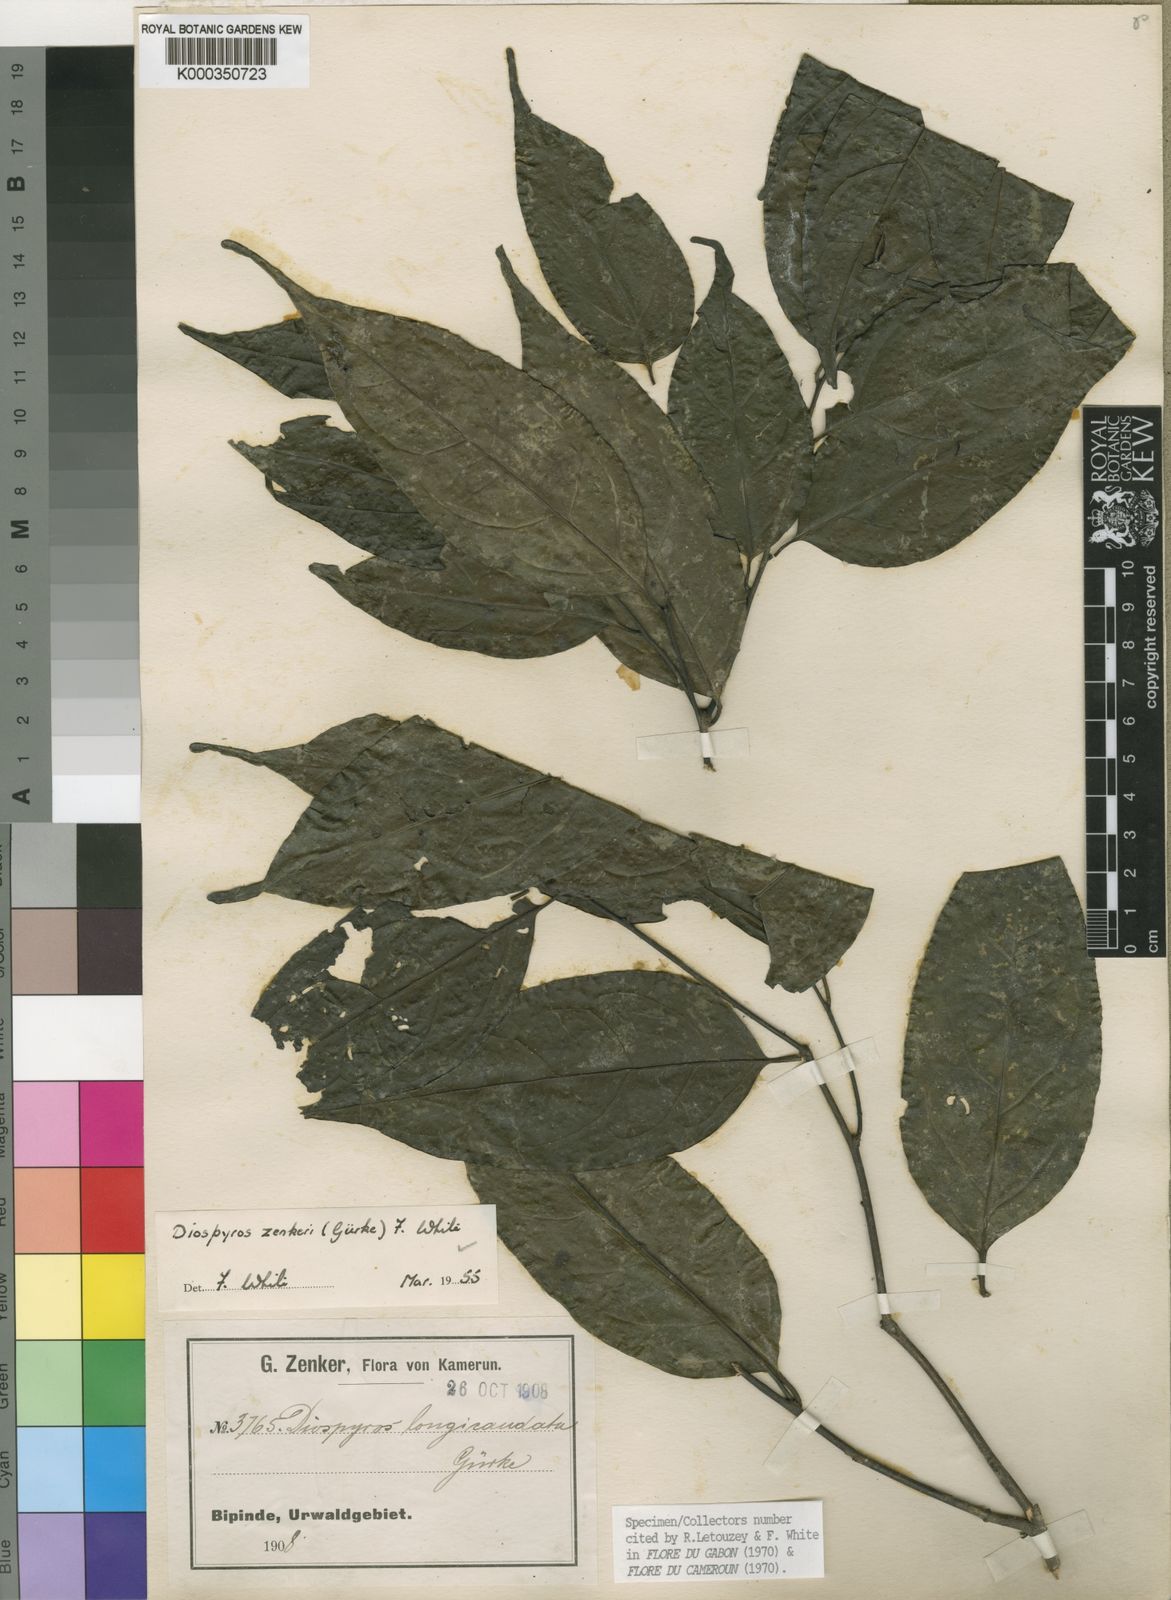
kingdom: Plantae
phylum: Tracheophyta
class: Magnoliopsida
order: Ericales
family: Ebenaceae
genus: Diospyros
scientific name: Diospyros
